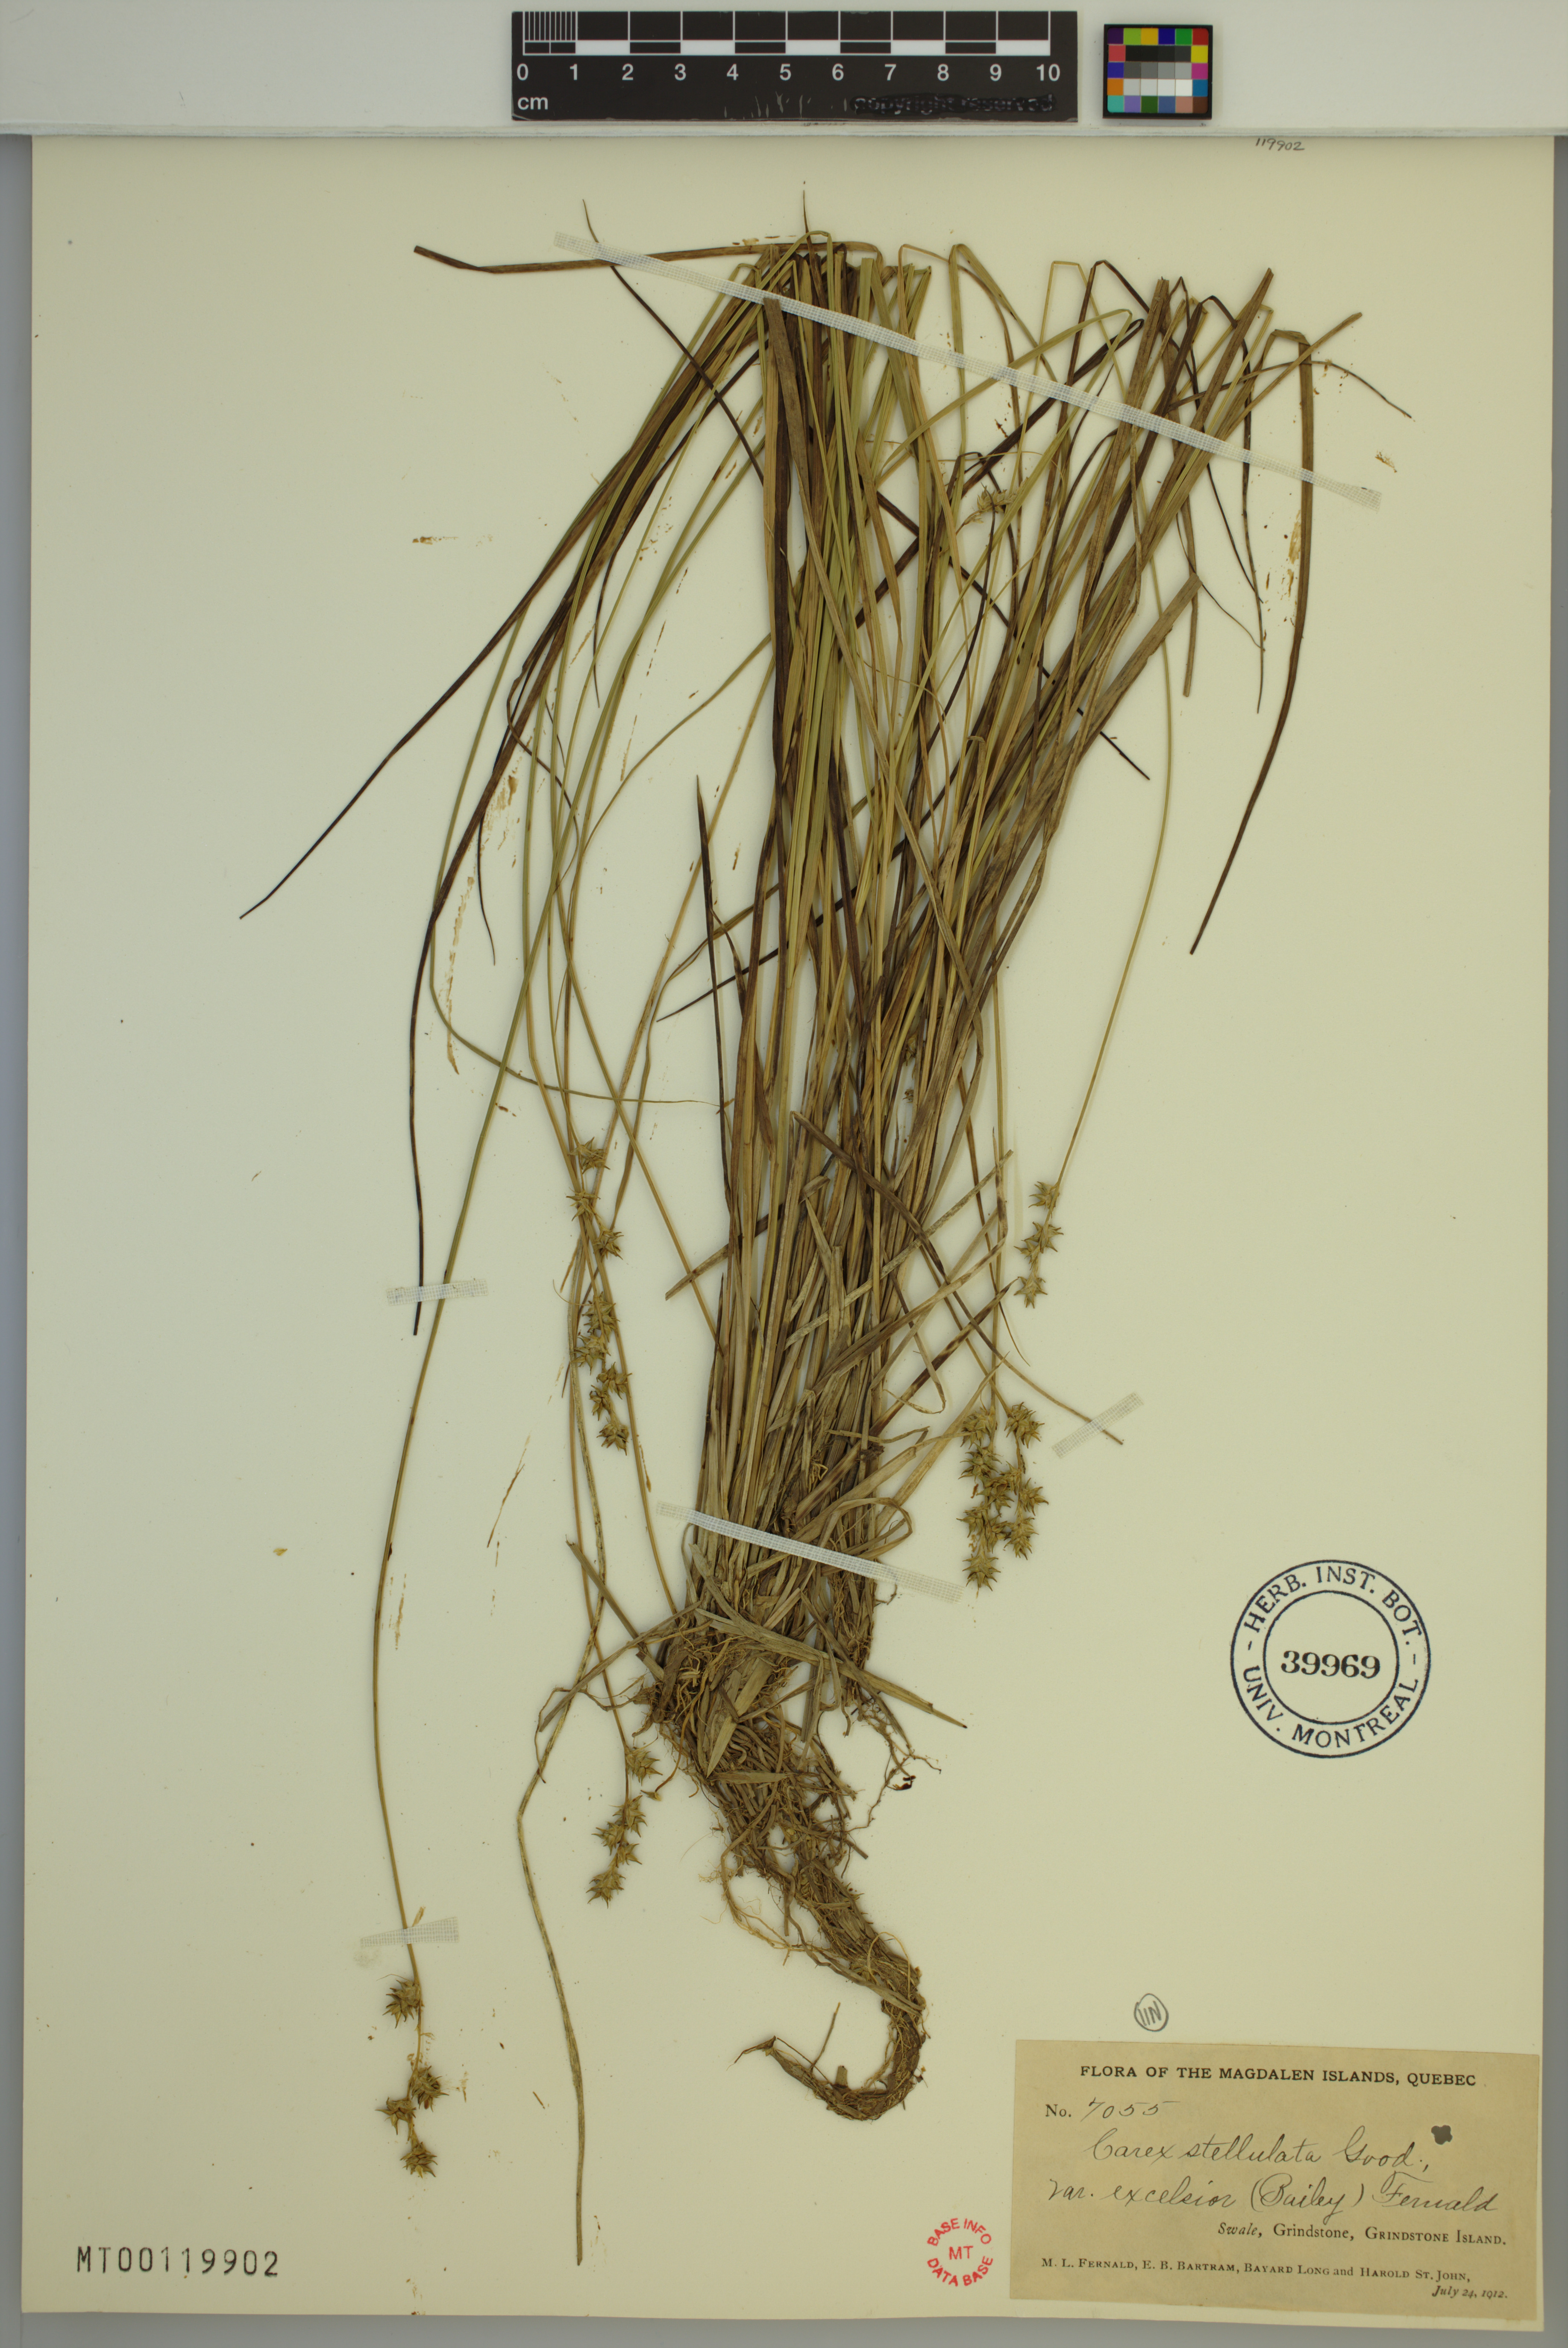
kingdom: Plantae
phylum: Tracheophyta
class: Liliopsida
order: Poales
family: Cyperaceae
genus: Carex
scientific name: Carex echinata
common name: Star sedge
